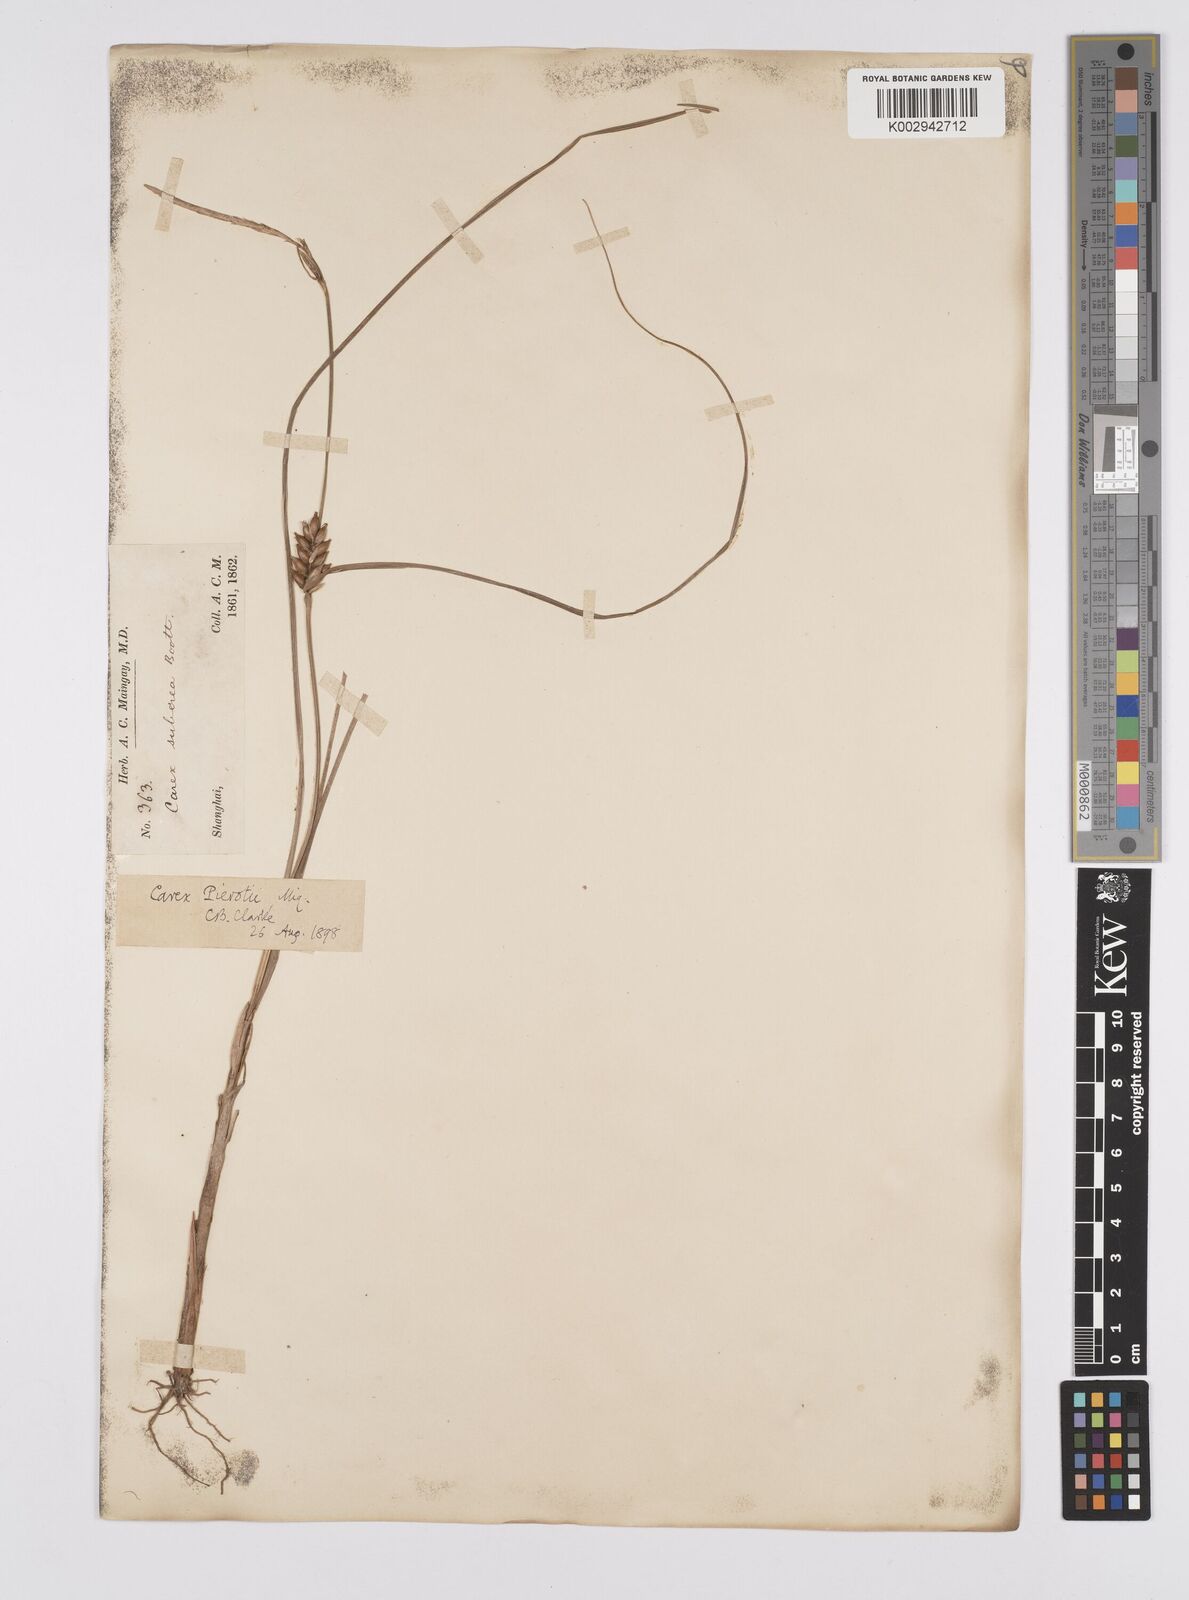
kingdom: Plantae
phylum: Tracheophyta
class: Liliopsida
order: Poales
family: Cyperaceae
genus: Carex
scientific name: Carex scabrifolia
